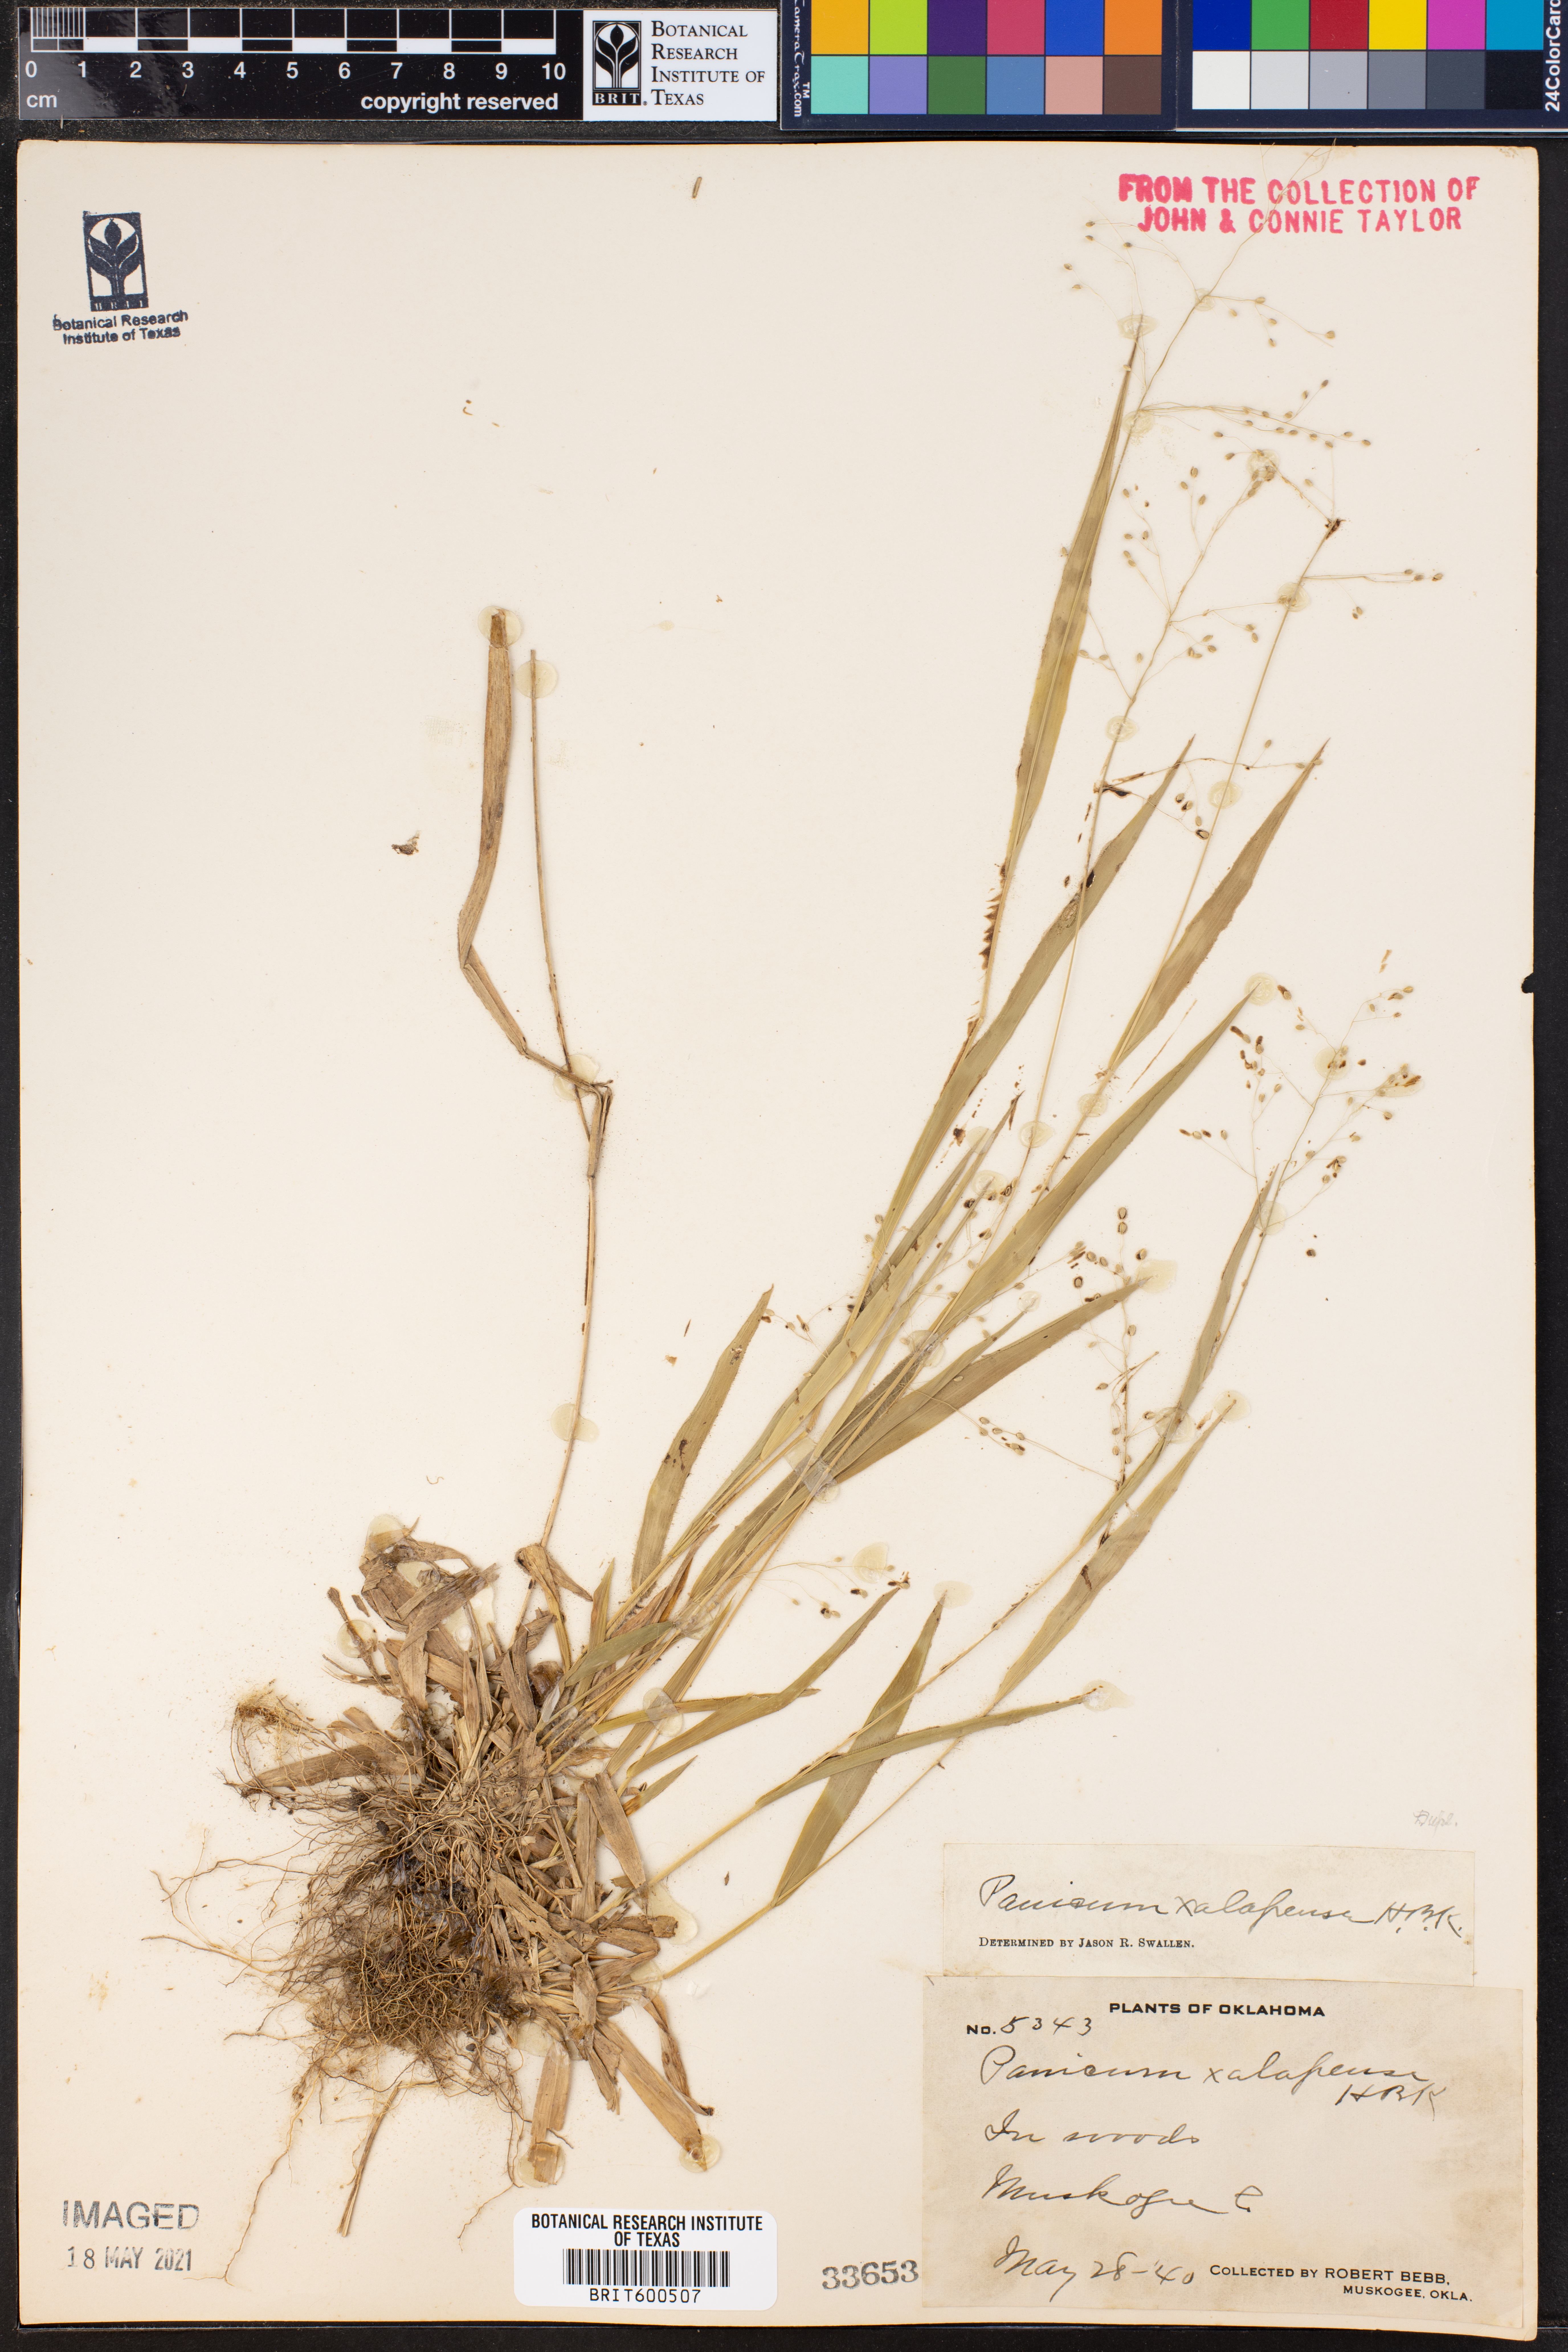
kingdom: Plantae
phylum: Tracheophyta
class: Liliopsida
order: Poales
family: Poaceae
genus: Dichanthelium
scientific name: Dichanthelium xalapense
